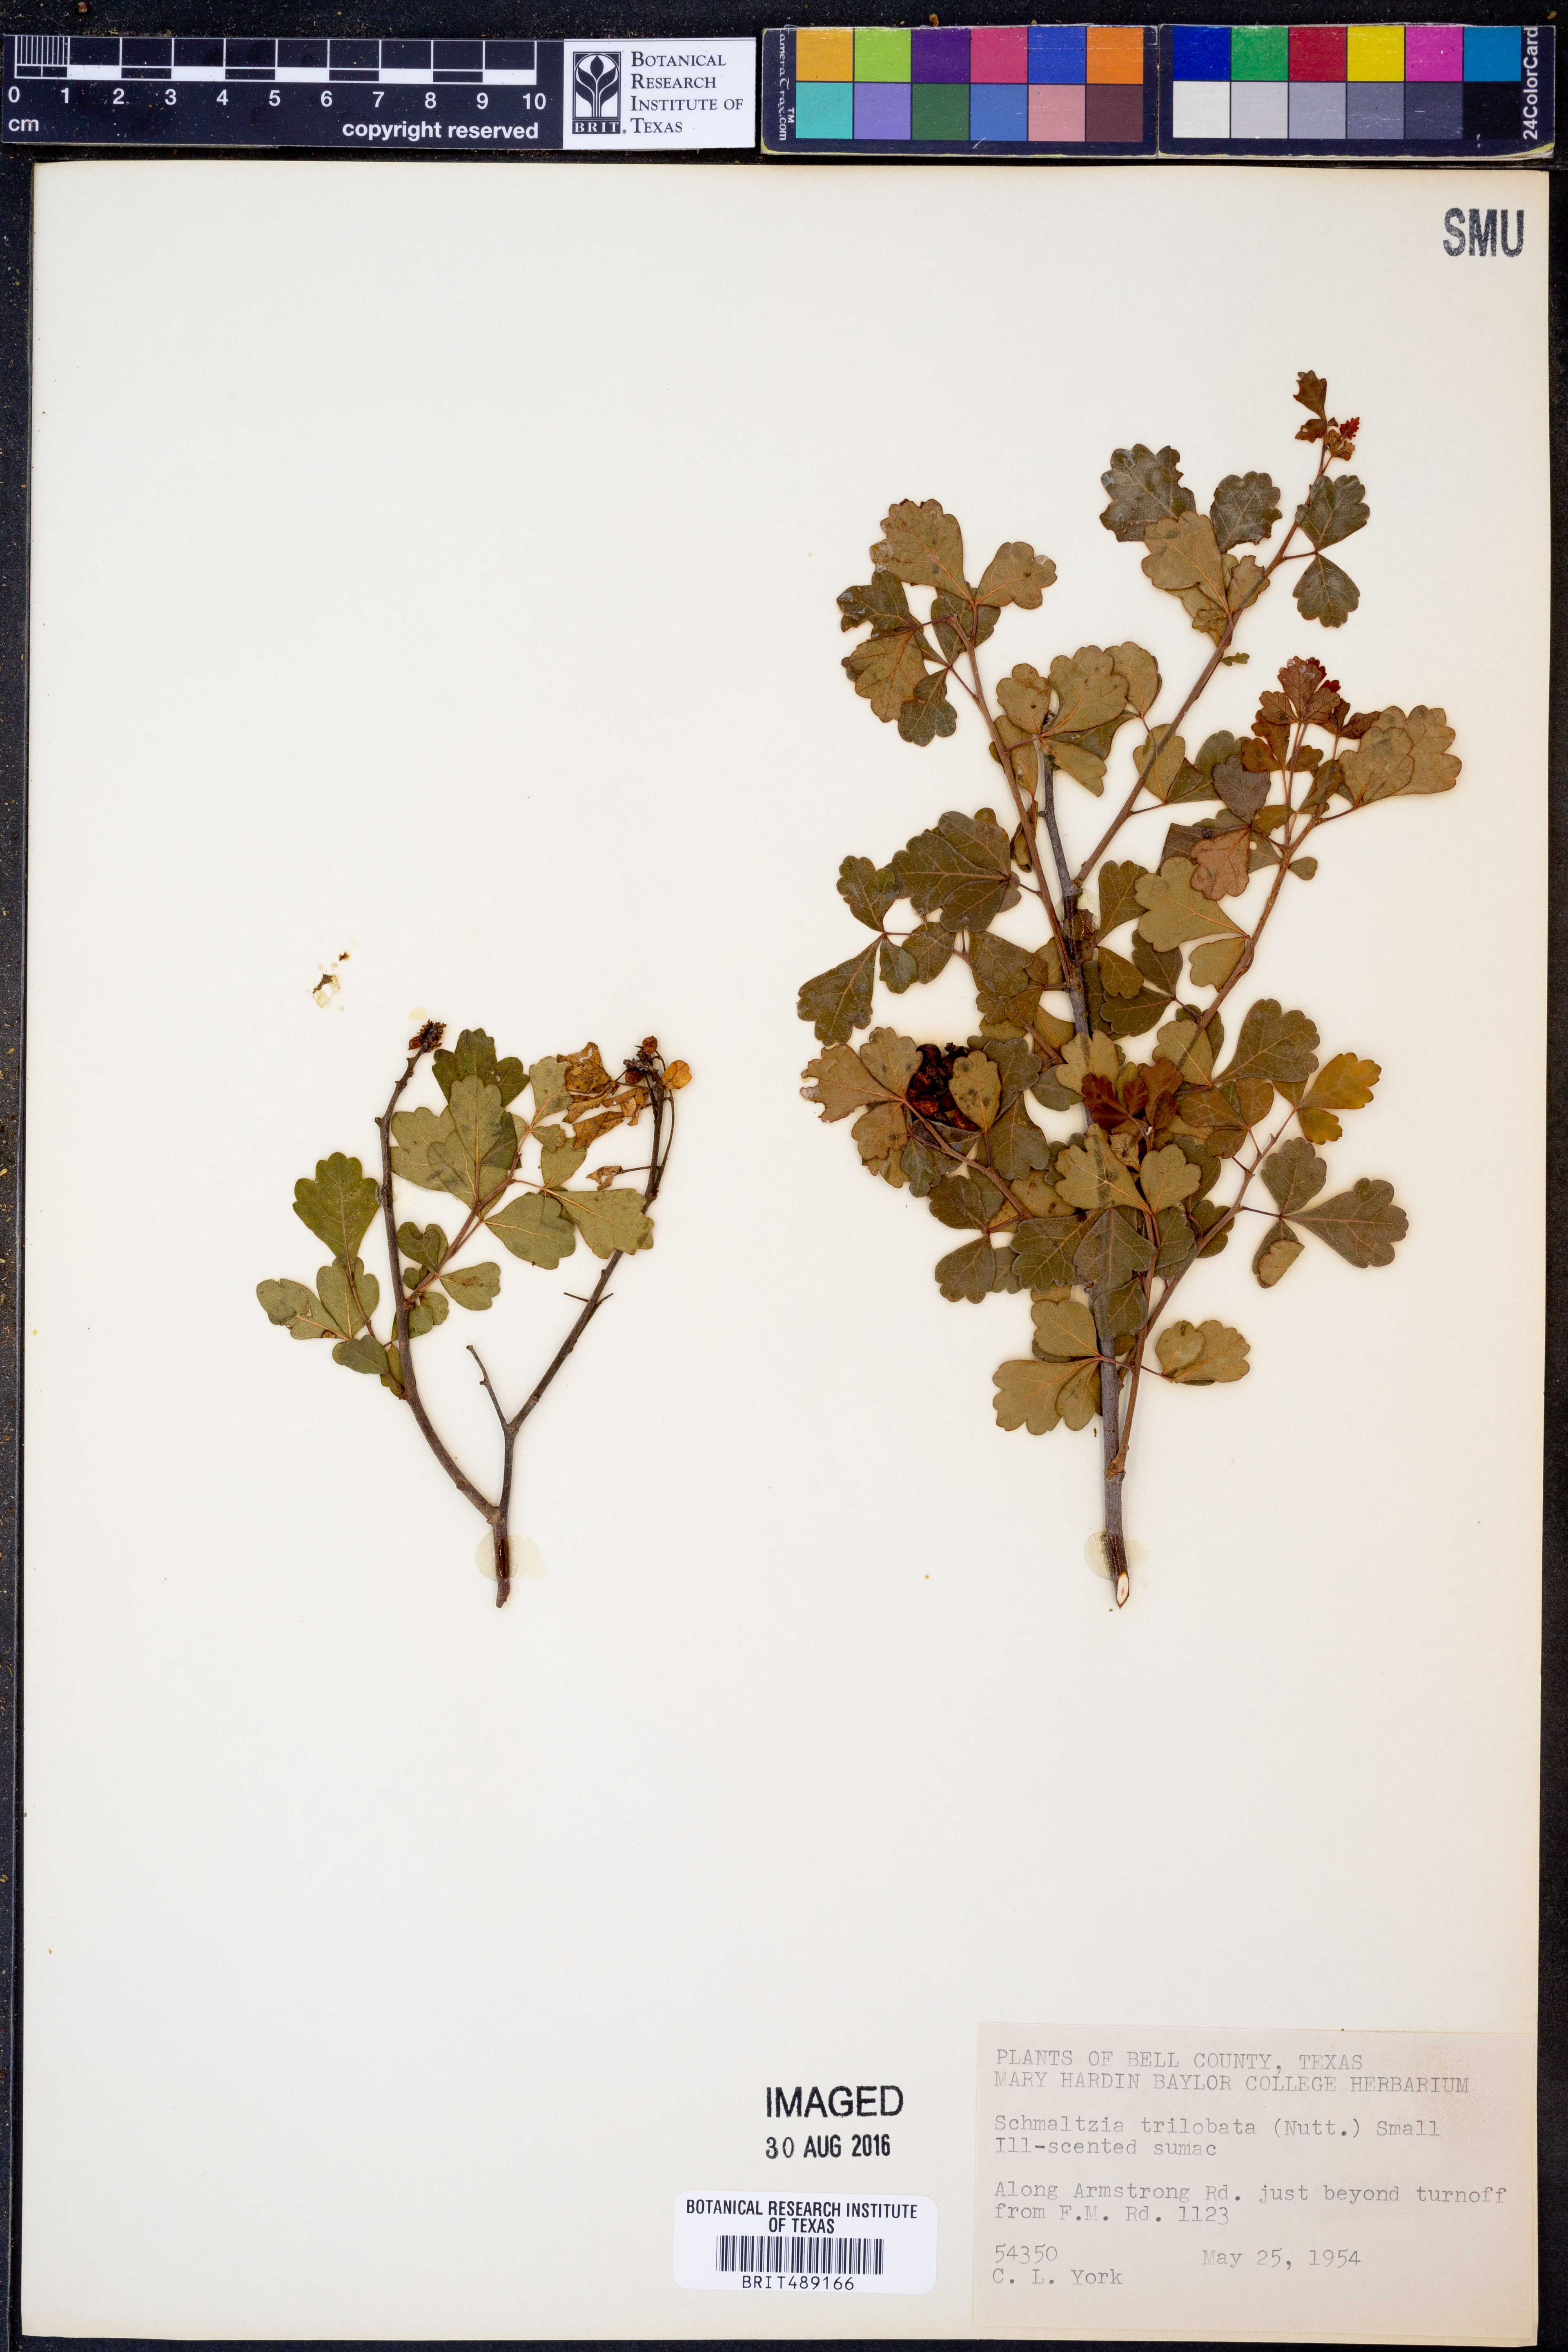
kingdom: Plantae
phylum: Tracheophyta
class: Magnoliopsida
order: Sapindales
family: Anacardiaceae
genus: Rhus
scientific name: Rhus trilobata
